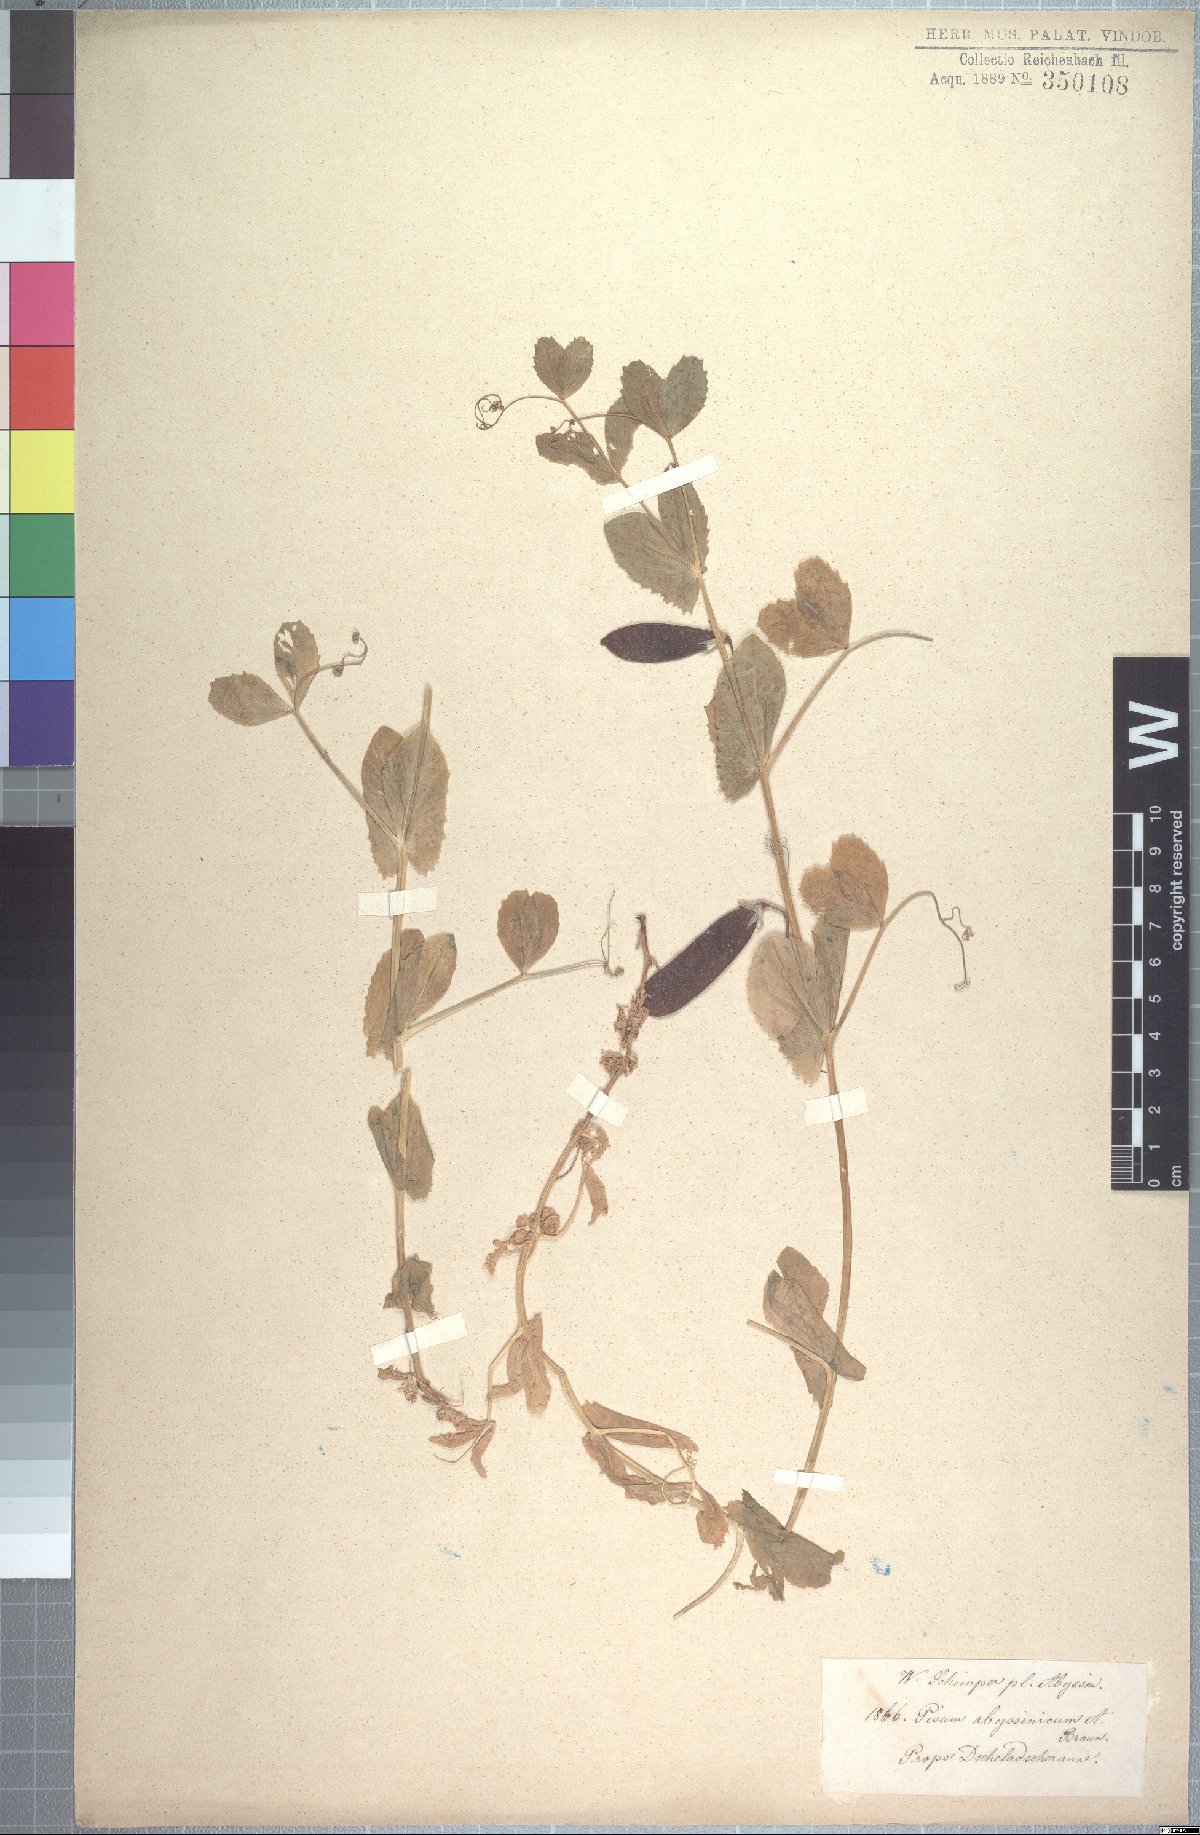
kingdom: Plantae
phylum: Tracheophyta
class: Magnoliopsida
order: Fabales
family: Fabaceae
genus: Lathyrus
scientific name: Lathyrus oleraceus
